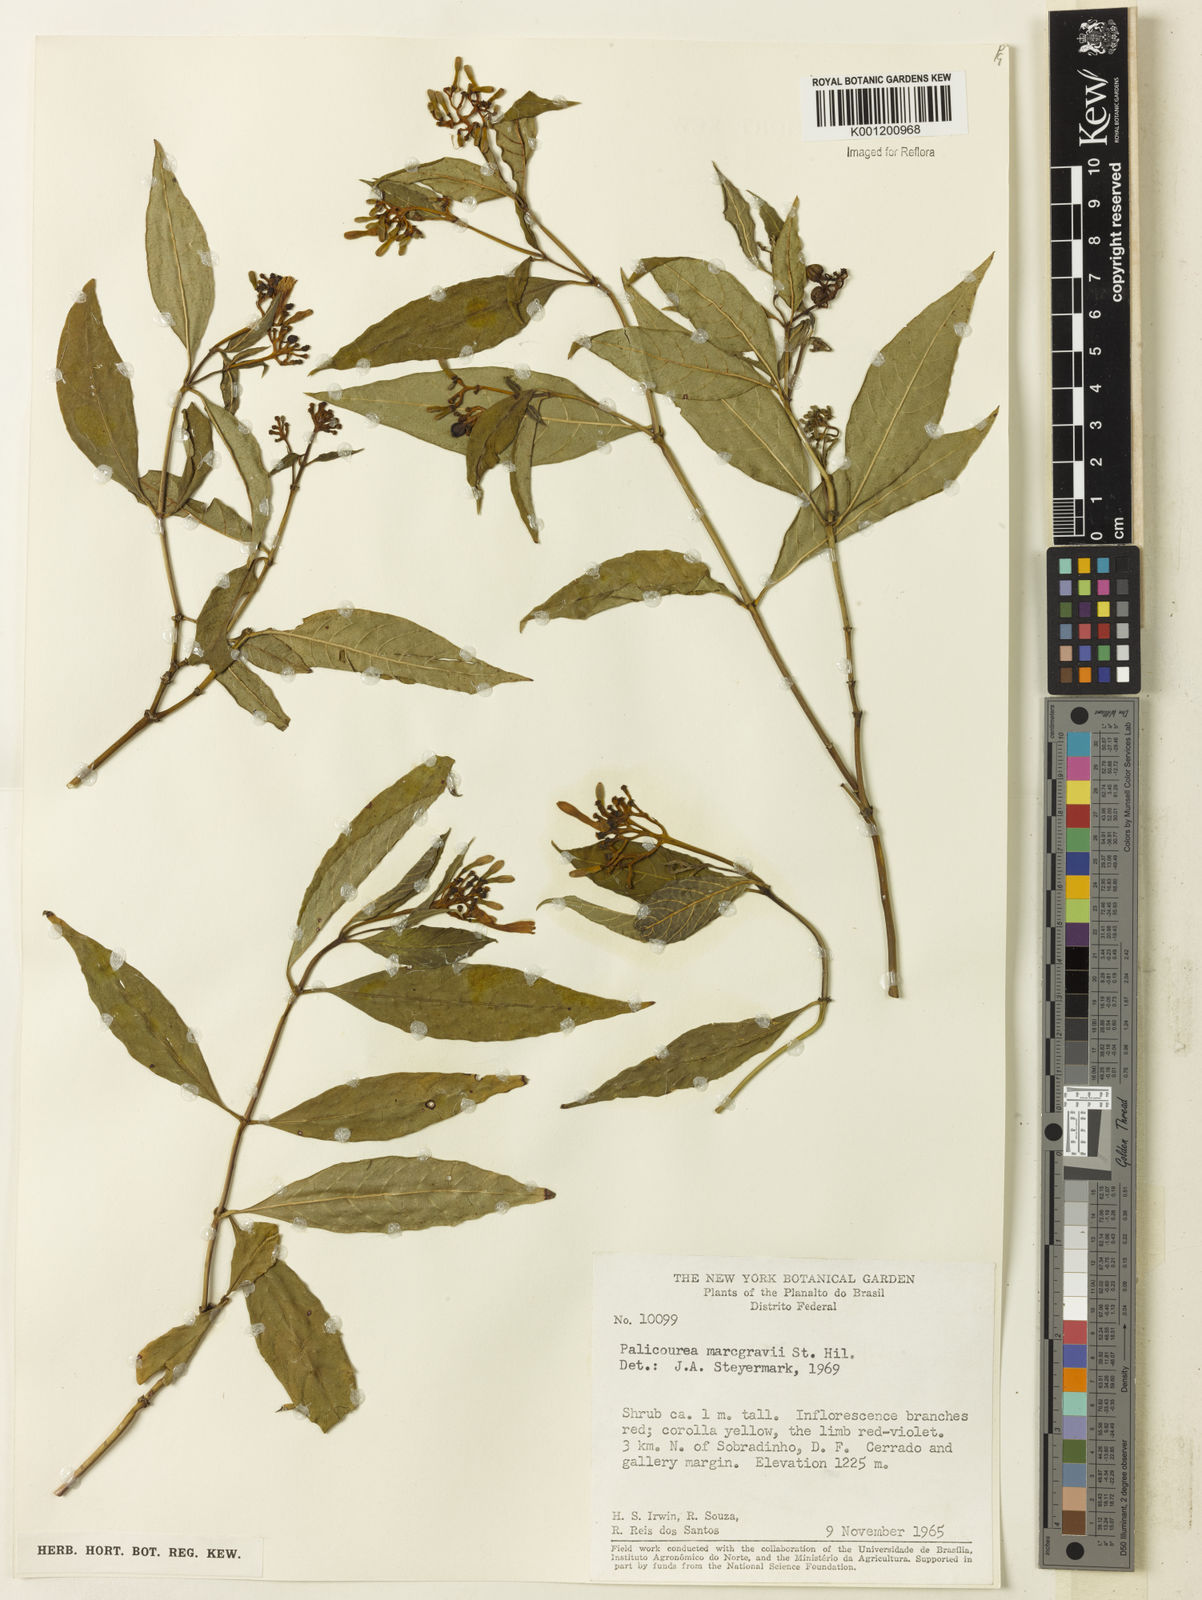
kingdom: Plantae
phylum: Tracheophyta
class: Magnoliopsida
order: Gentianales
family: Rubiaceae
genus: Palicourea
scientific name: Palicourea marcgravii
